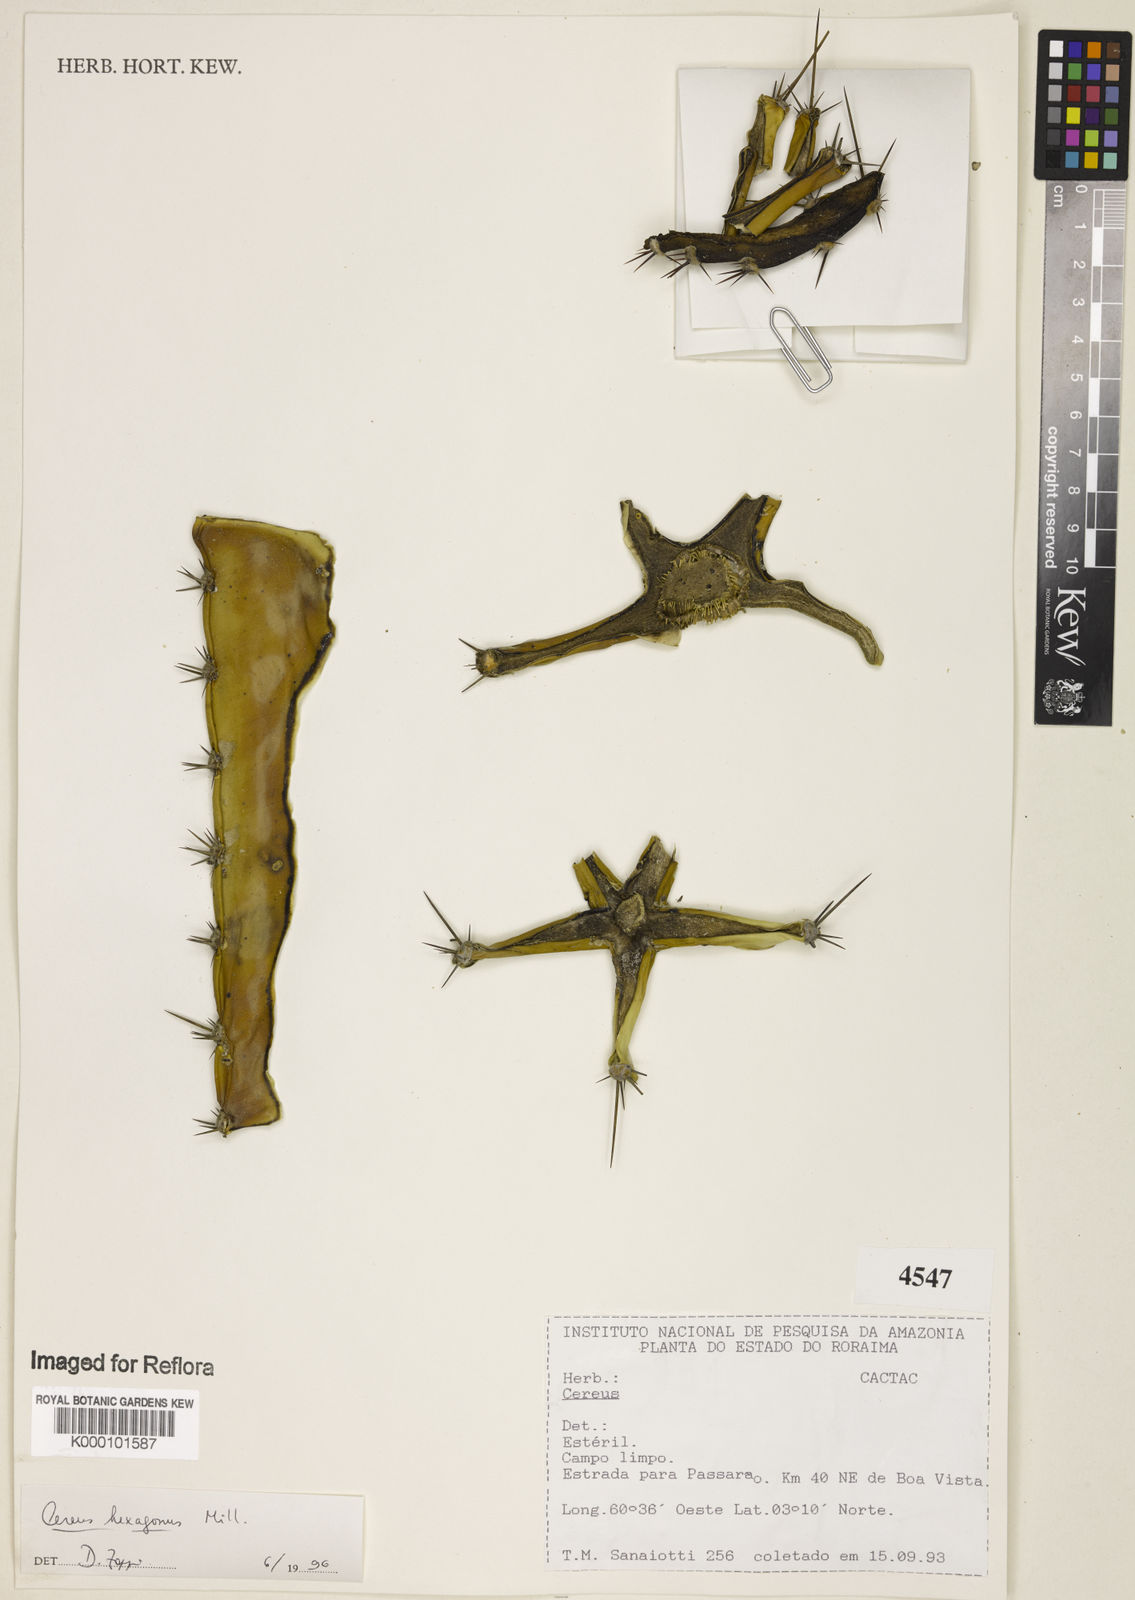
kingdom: Plantae
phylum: Tracheophyta
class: Magnoliopsida
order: Caryophyllales
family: Cactaceae
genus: Cereus
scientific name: Cereus hexagonus
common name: Lady of the night cactus
